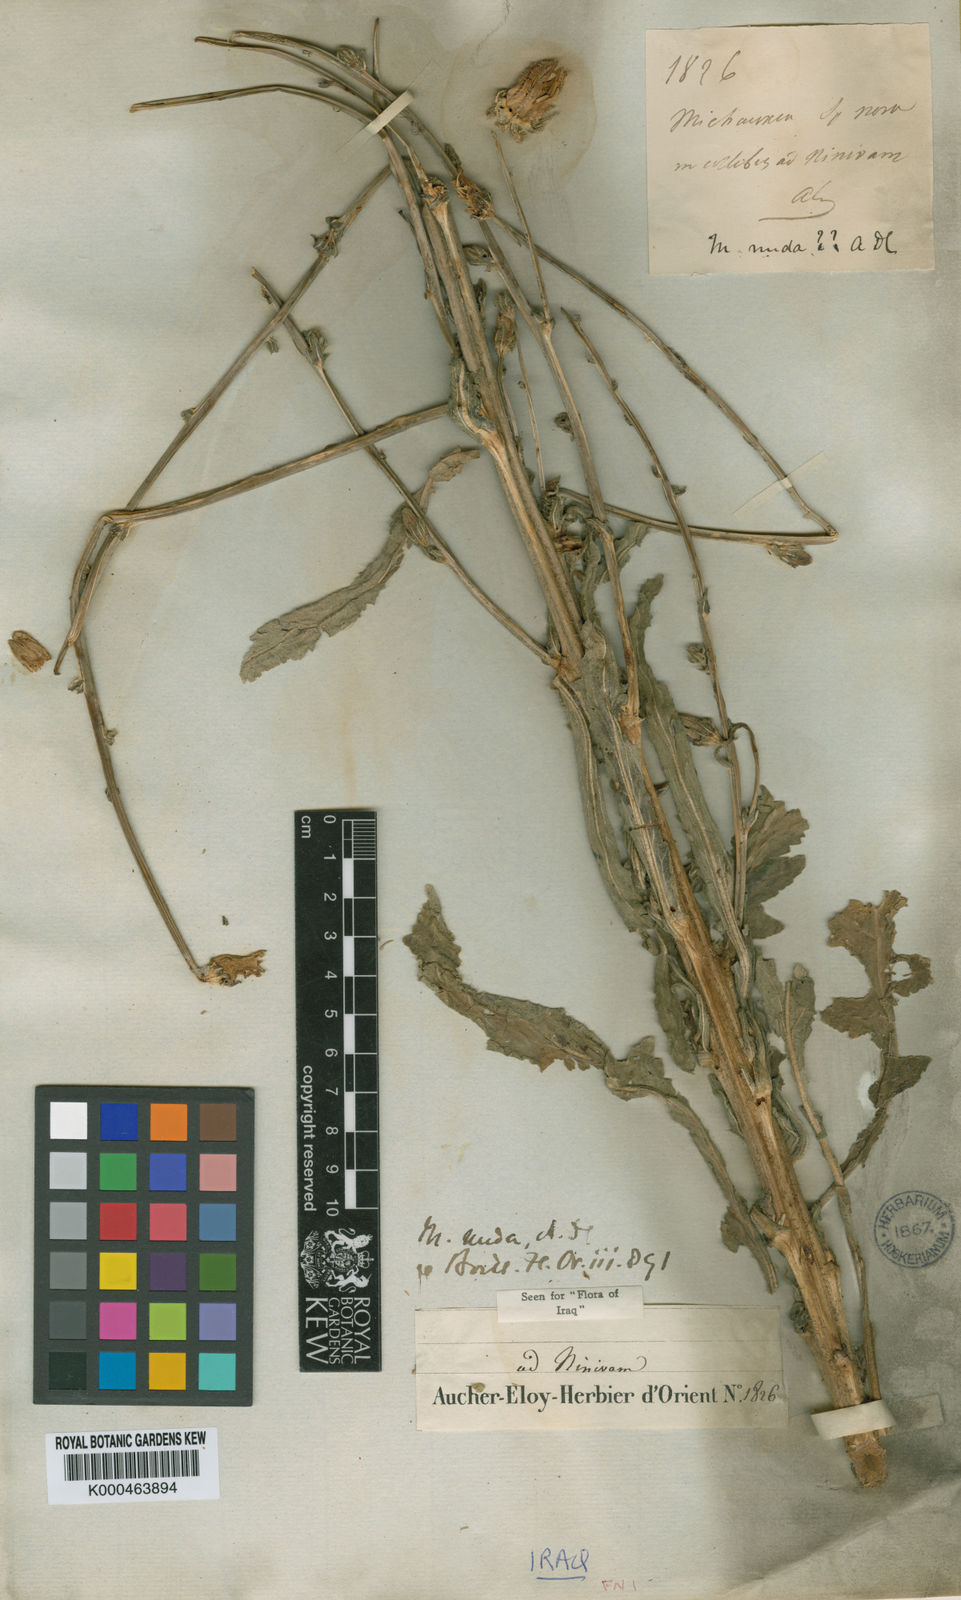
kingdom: Plantae
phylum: Tracheophyta
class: Magnoliopsida
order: Asterales
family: Campanulaceae
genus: Michauxia
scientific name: Michauxia nuda
